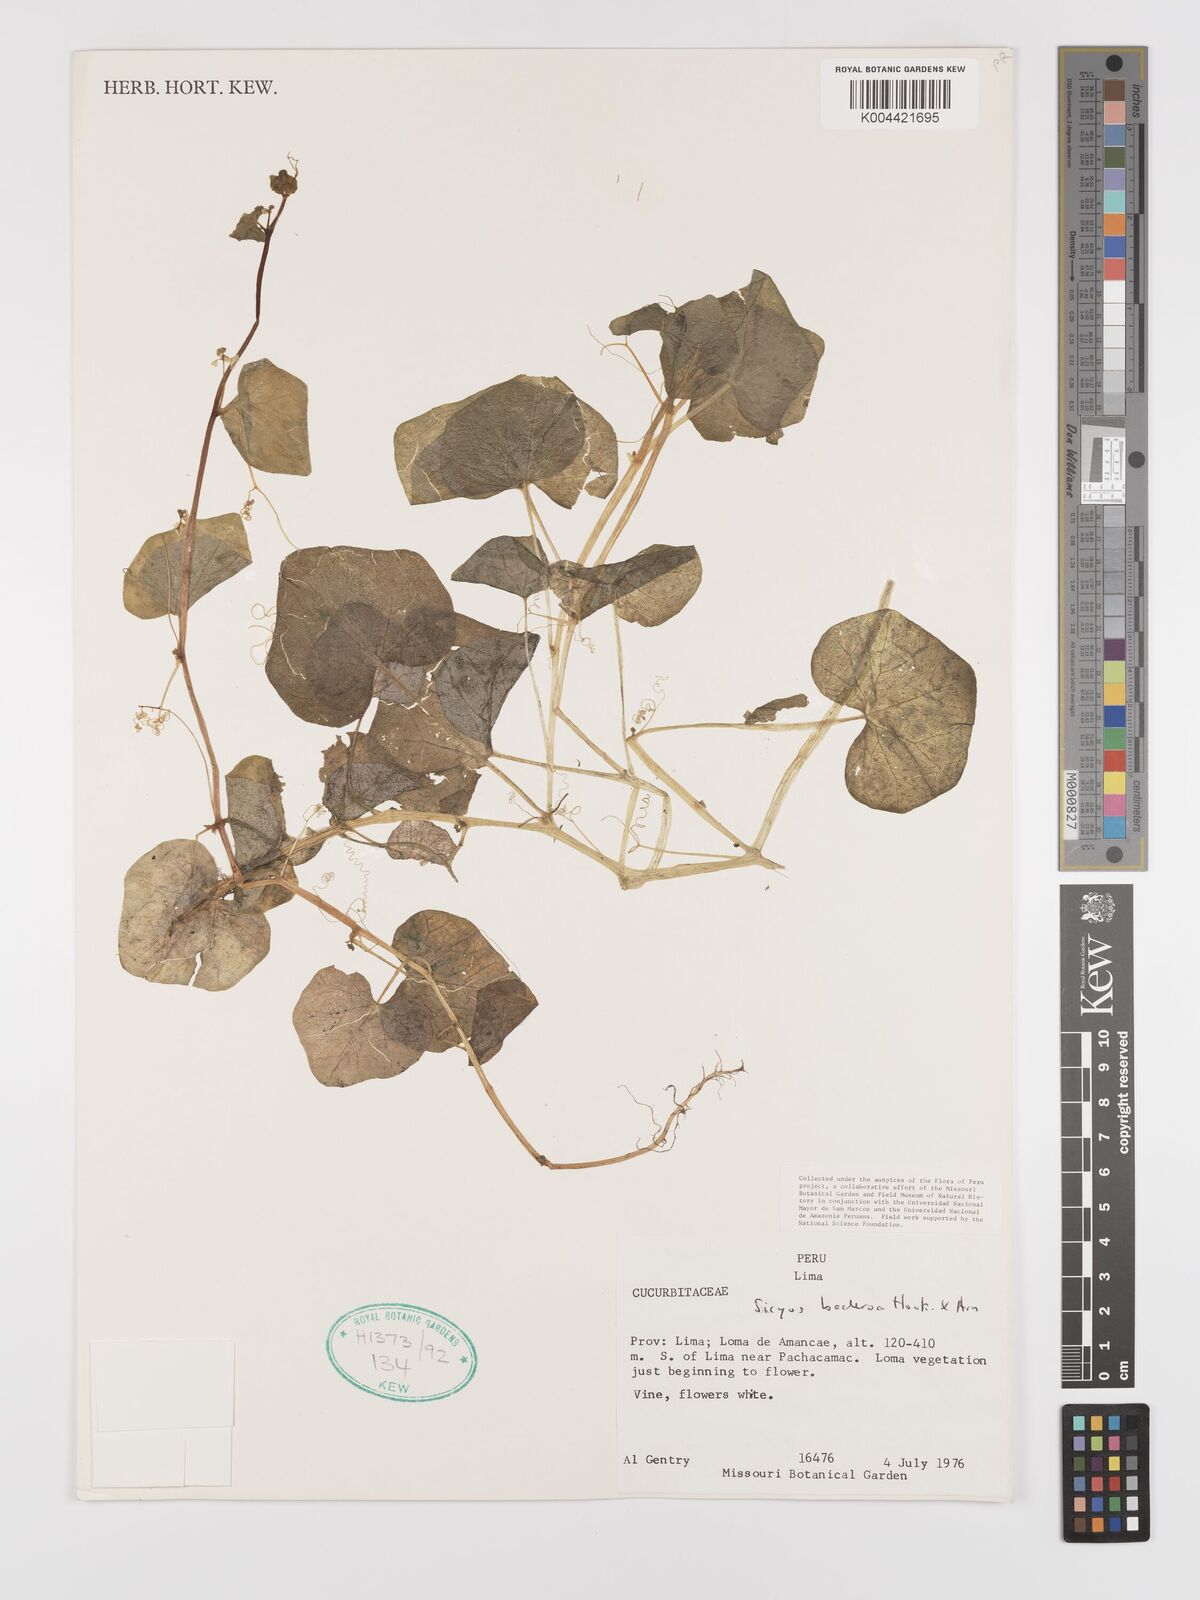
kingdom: Plantae
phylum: Tracheophyta
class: Magnoliopsida
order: Cucurbitales
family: Cucurbitaceae
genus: Sicyos
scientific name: Sicyos baderoa
